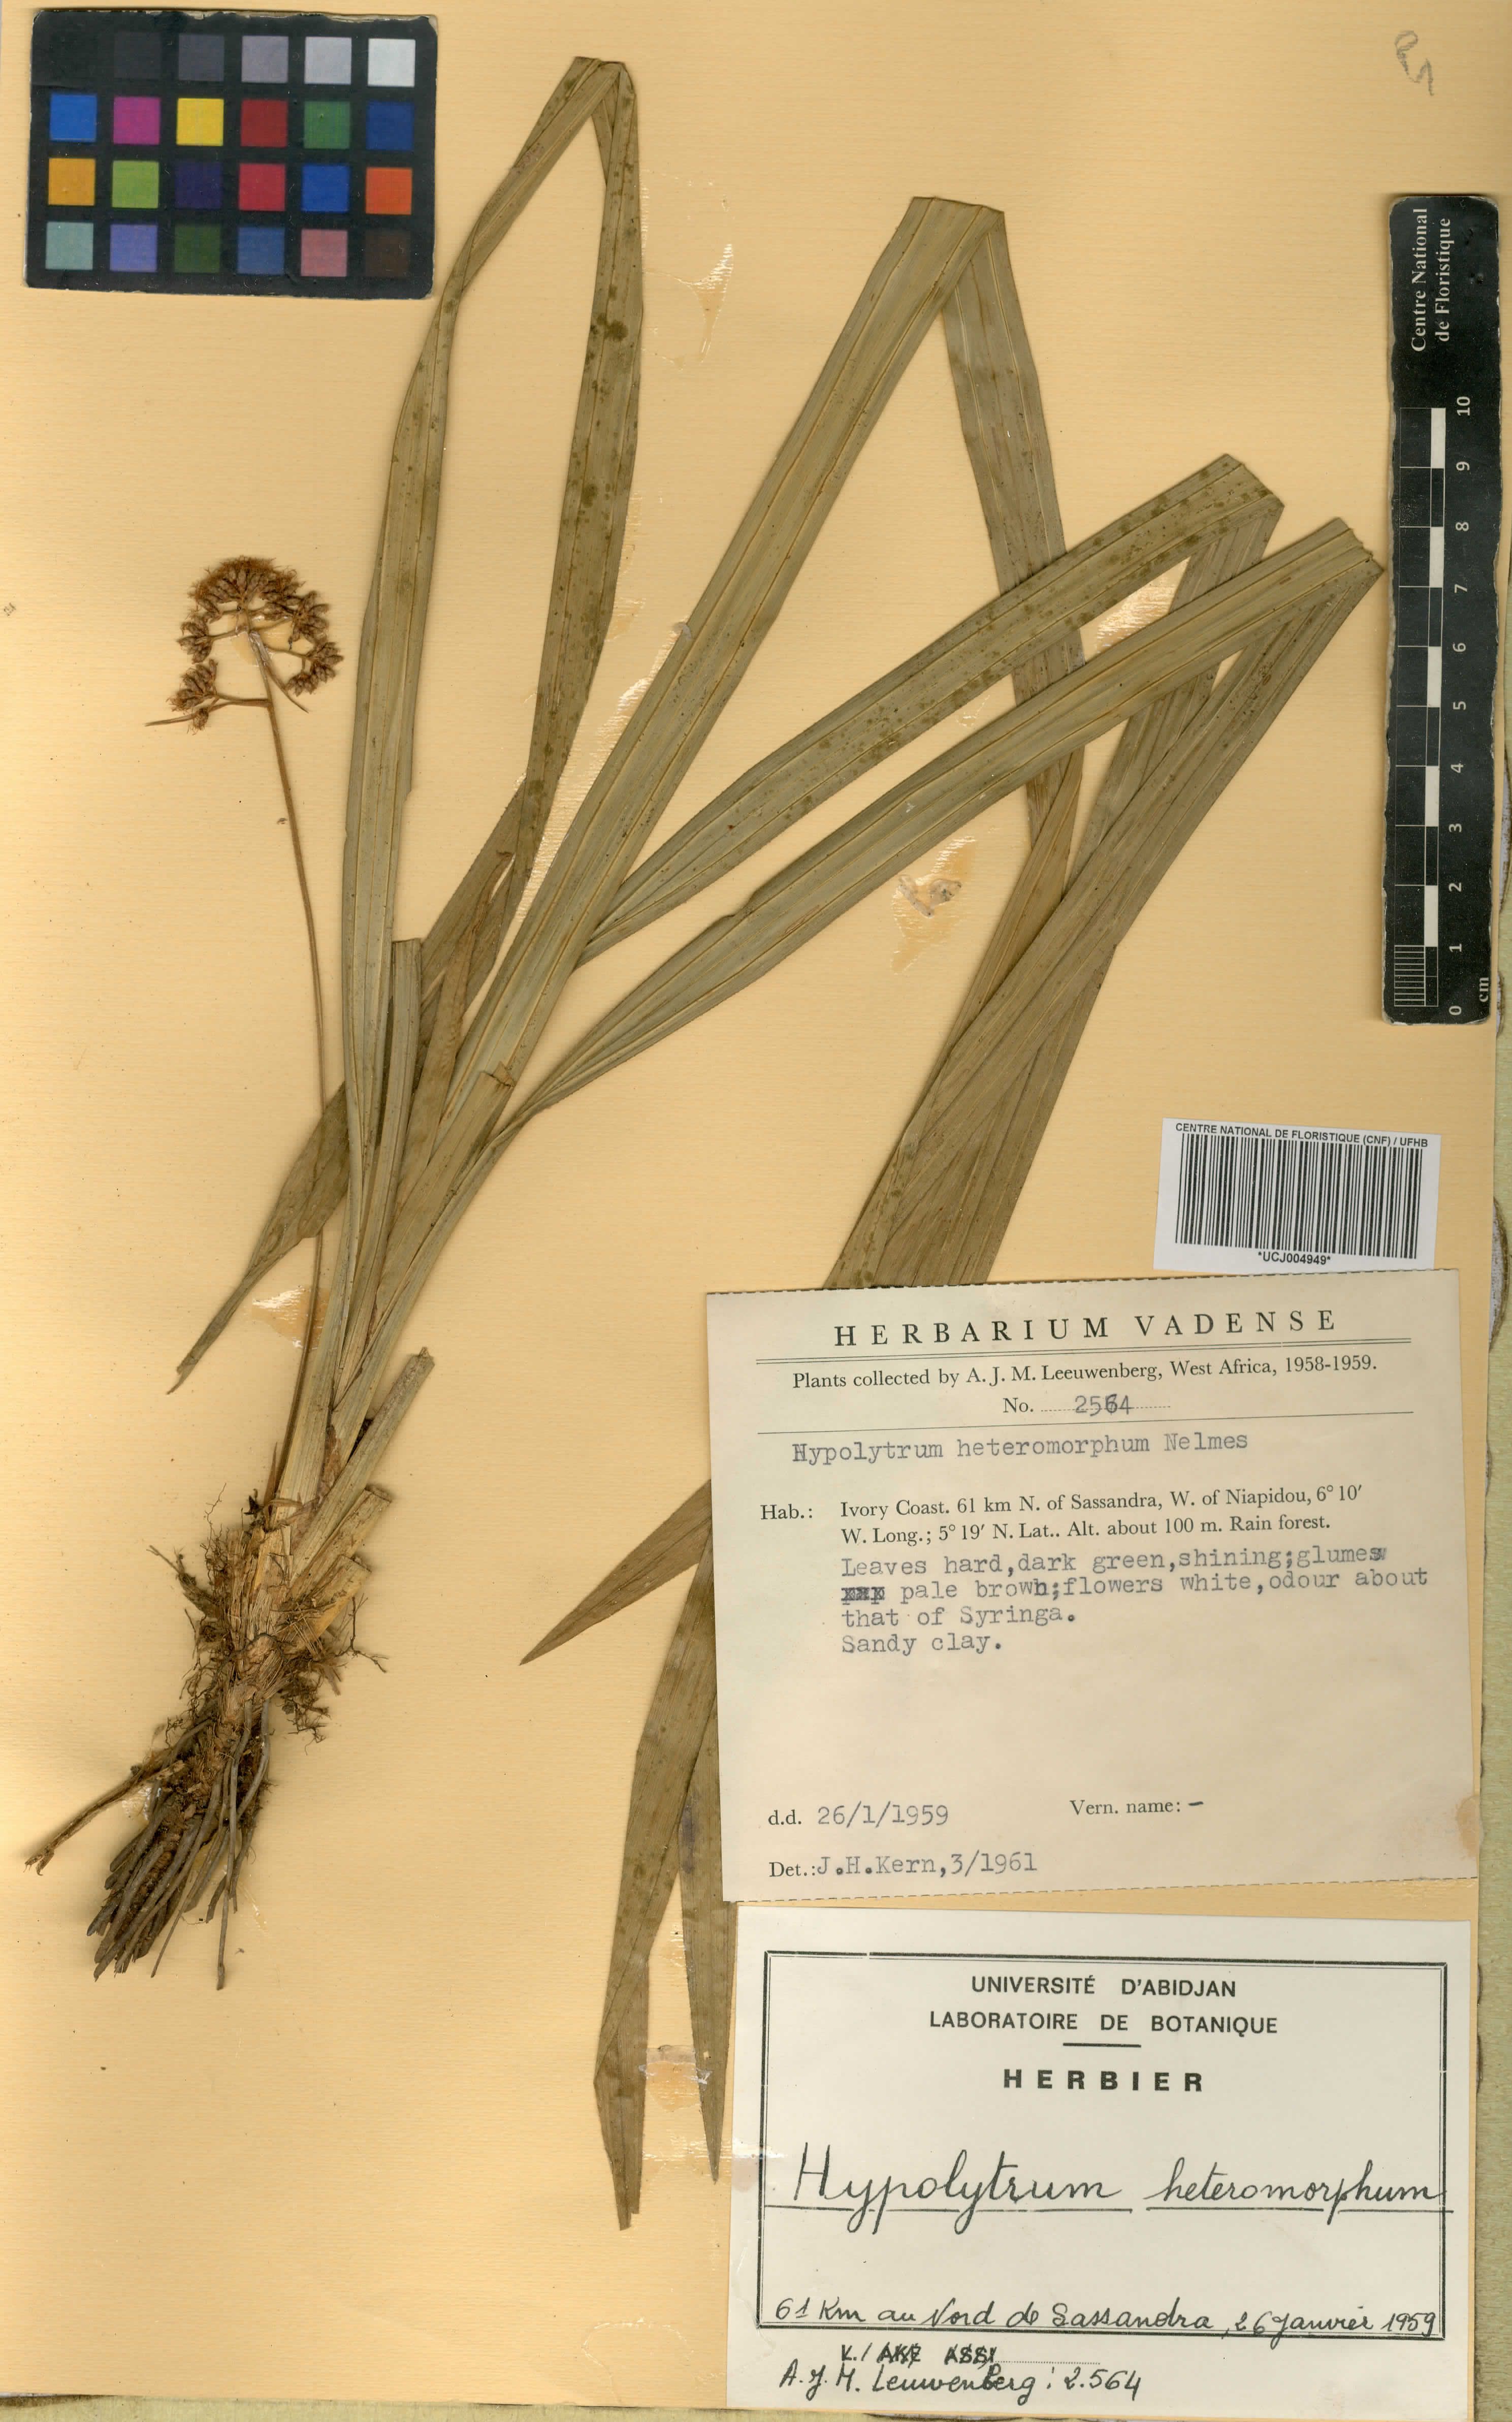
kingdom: Plantae
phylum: Tracheophyta
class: Liliopsida
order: Poales
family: Cyperaceae
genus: Hypolytrum
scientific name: Hypolytrum heteromorphum
